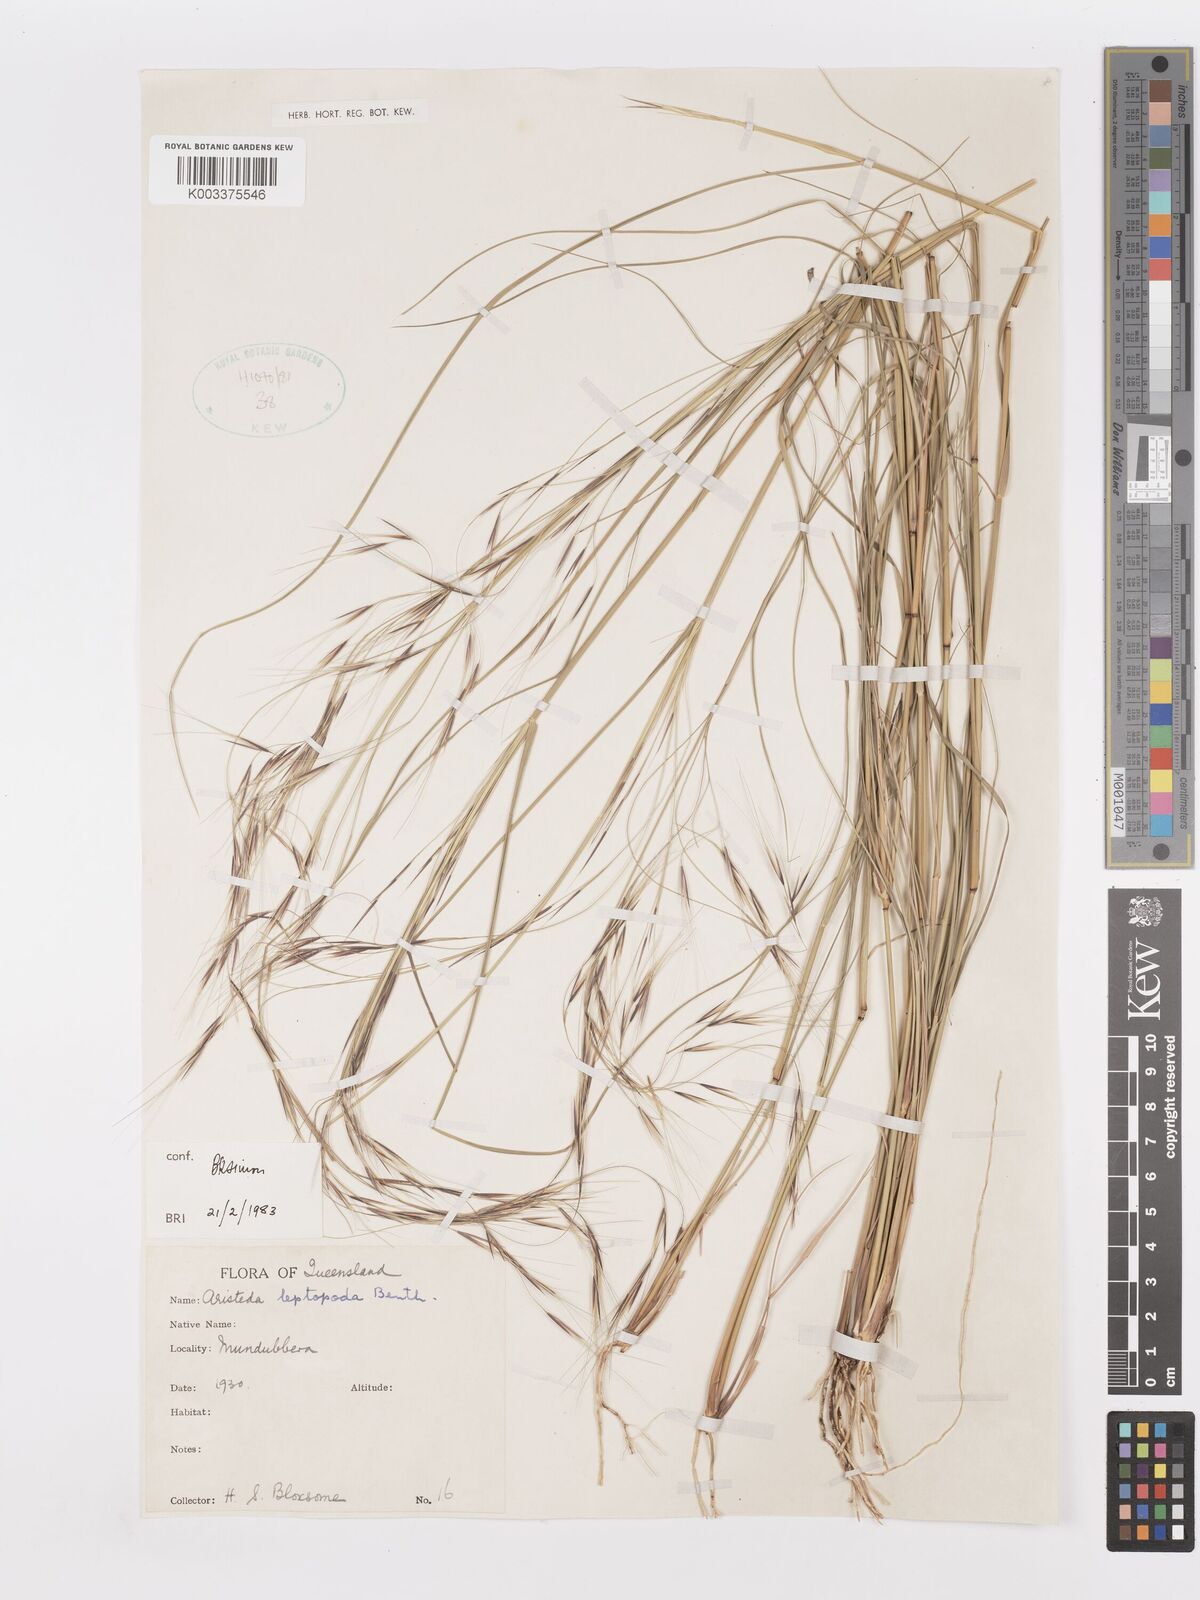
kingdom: Plantae
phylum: Tracheophyta
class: Liliopsida
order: Poales
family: Poaceae
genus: Aristida
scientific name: Aristida leptopoda
